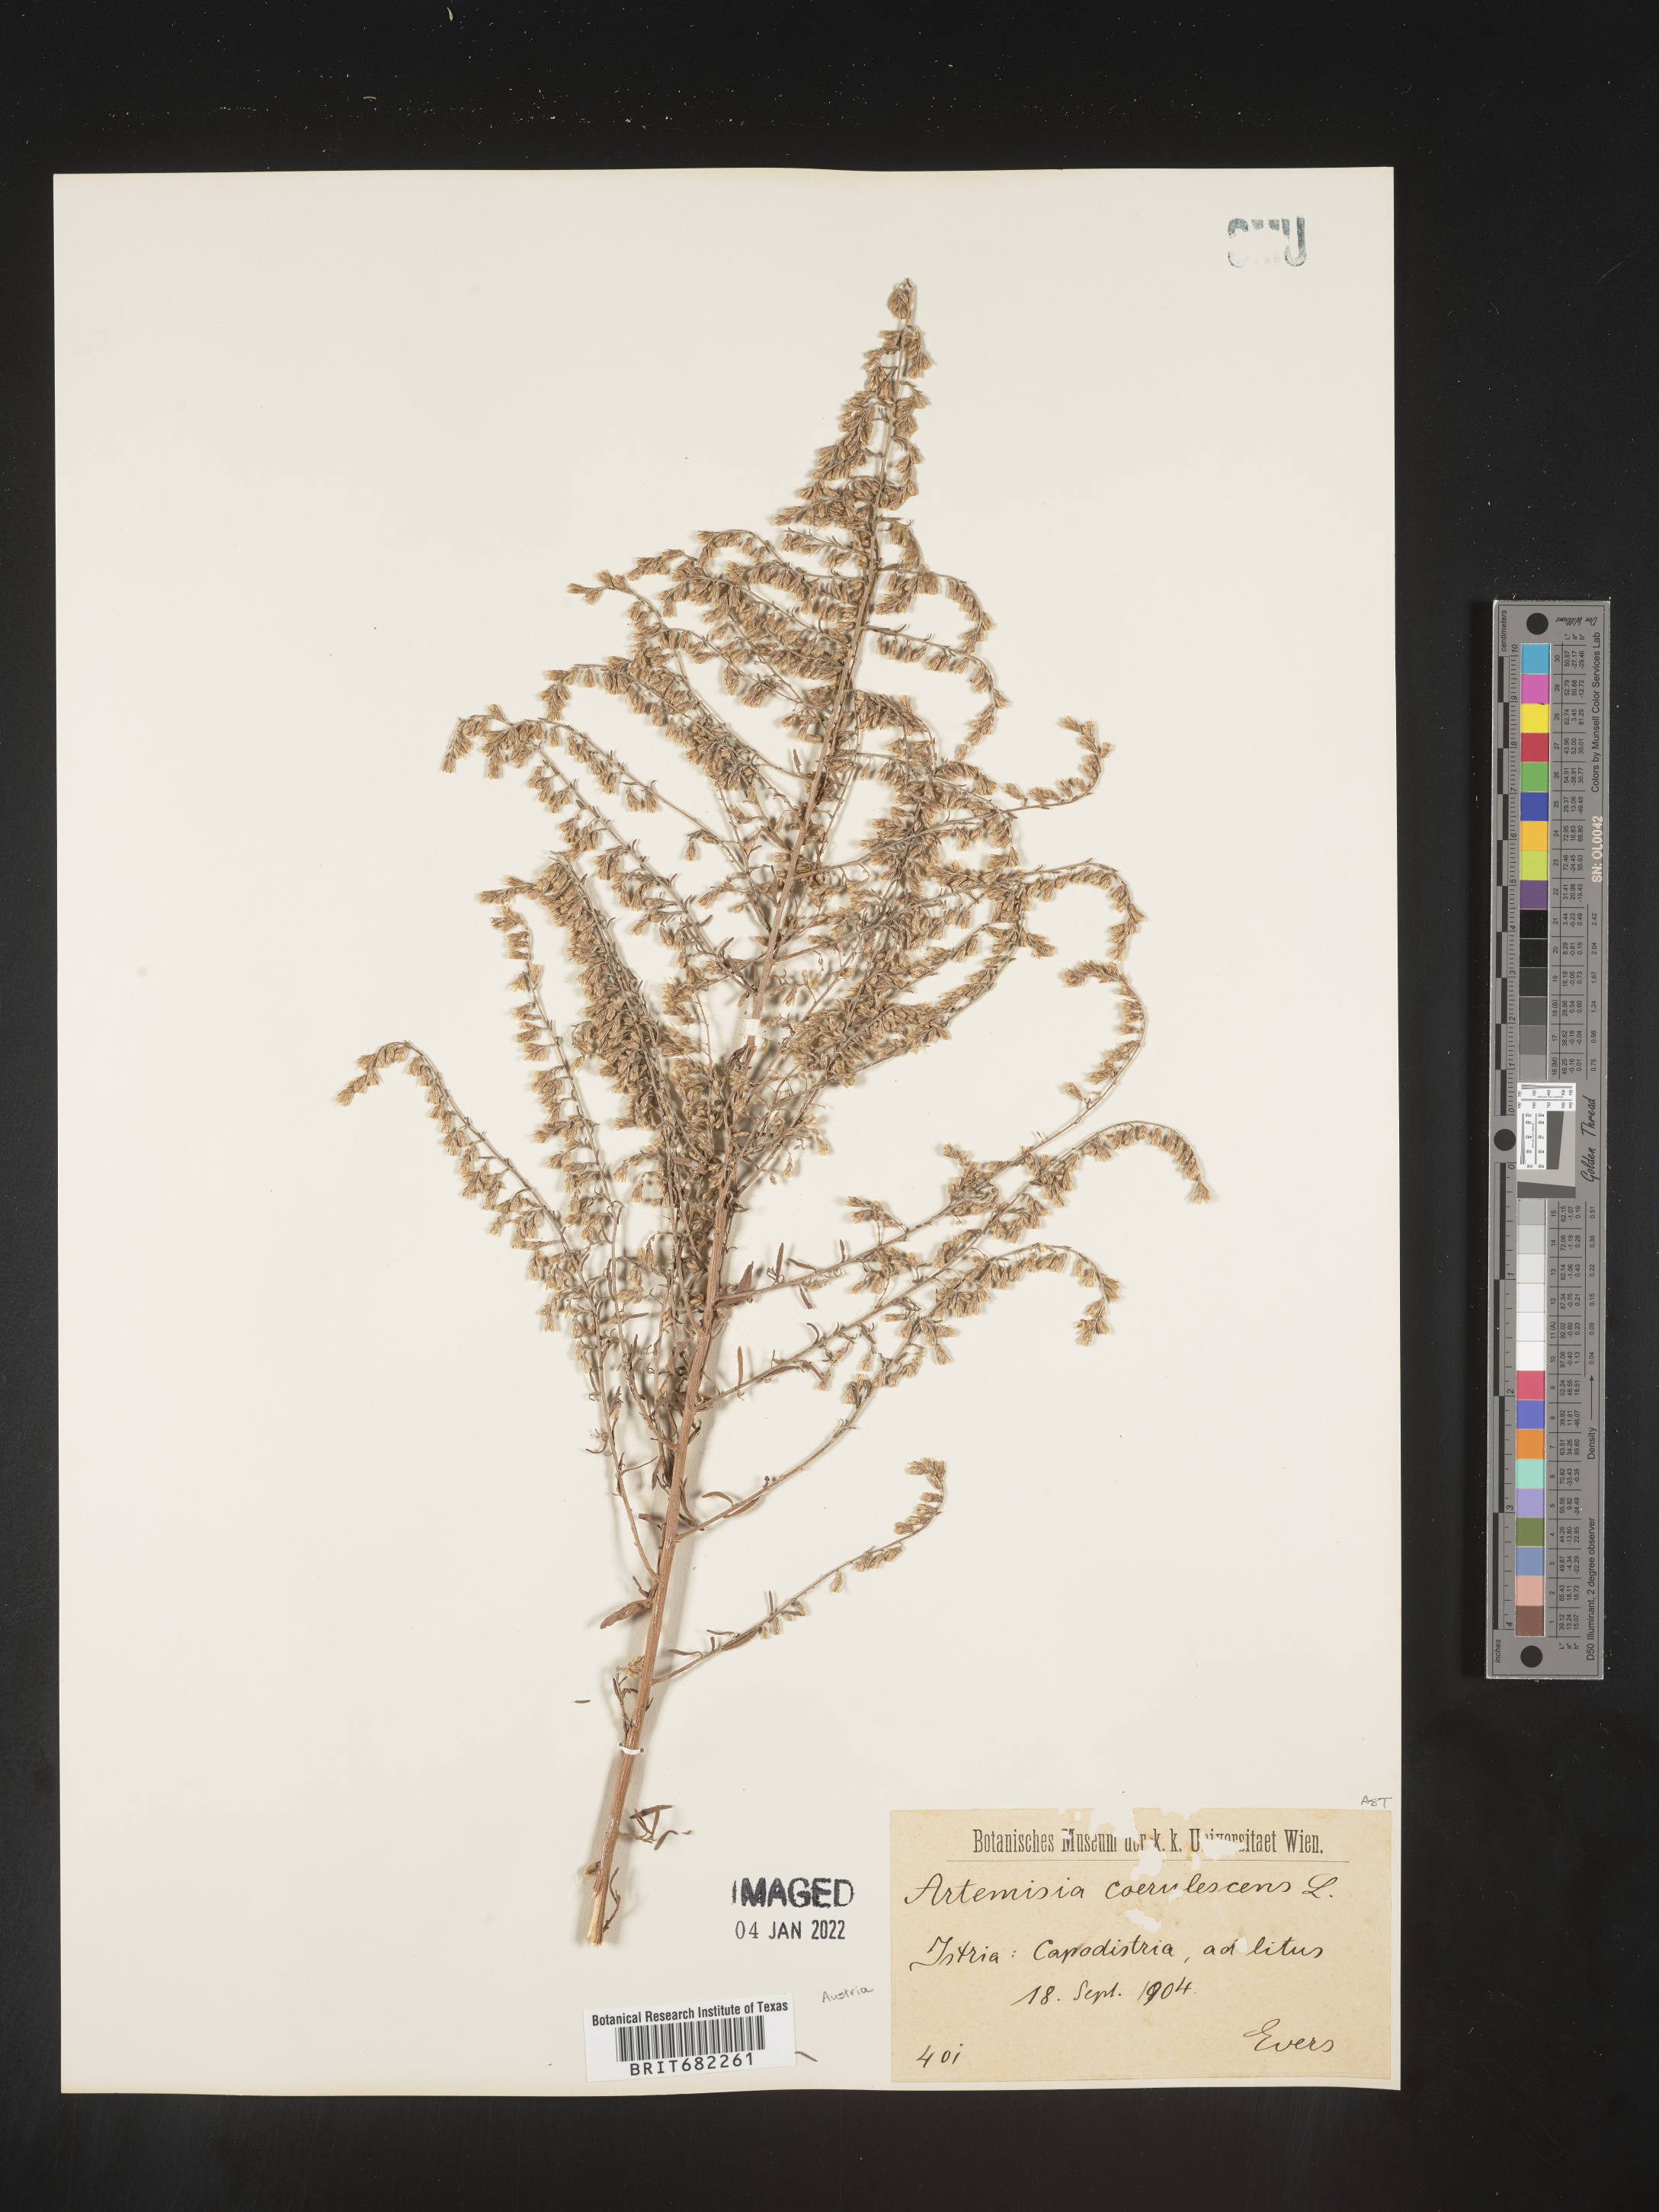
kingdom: Plantae
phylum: Tracheophyta
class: Magnoliopsida
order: Asterales
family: Asteraceae
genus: Artemisia
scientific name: Artemisia
